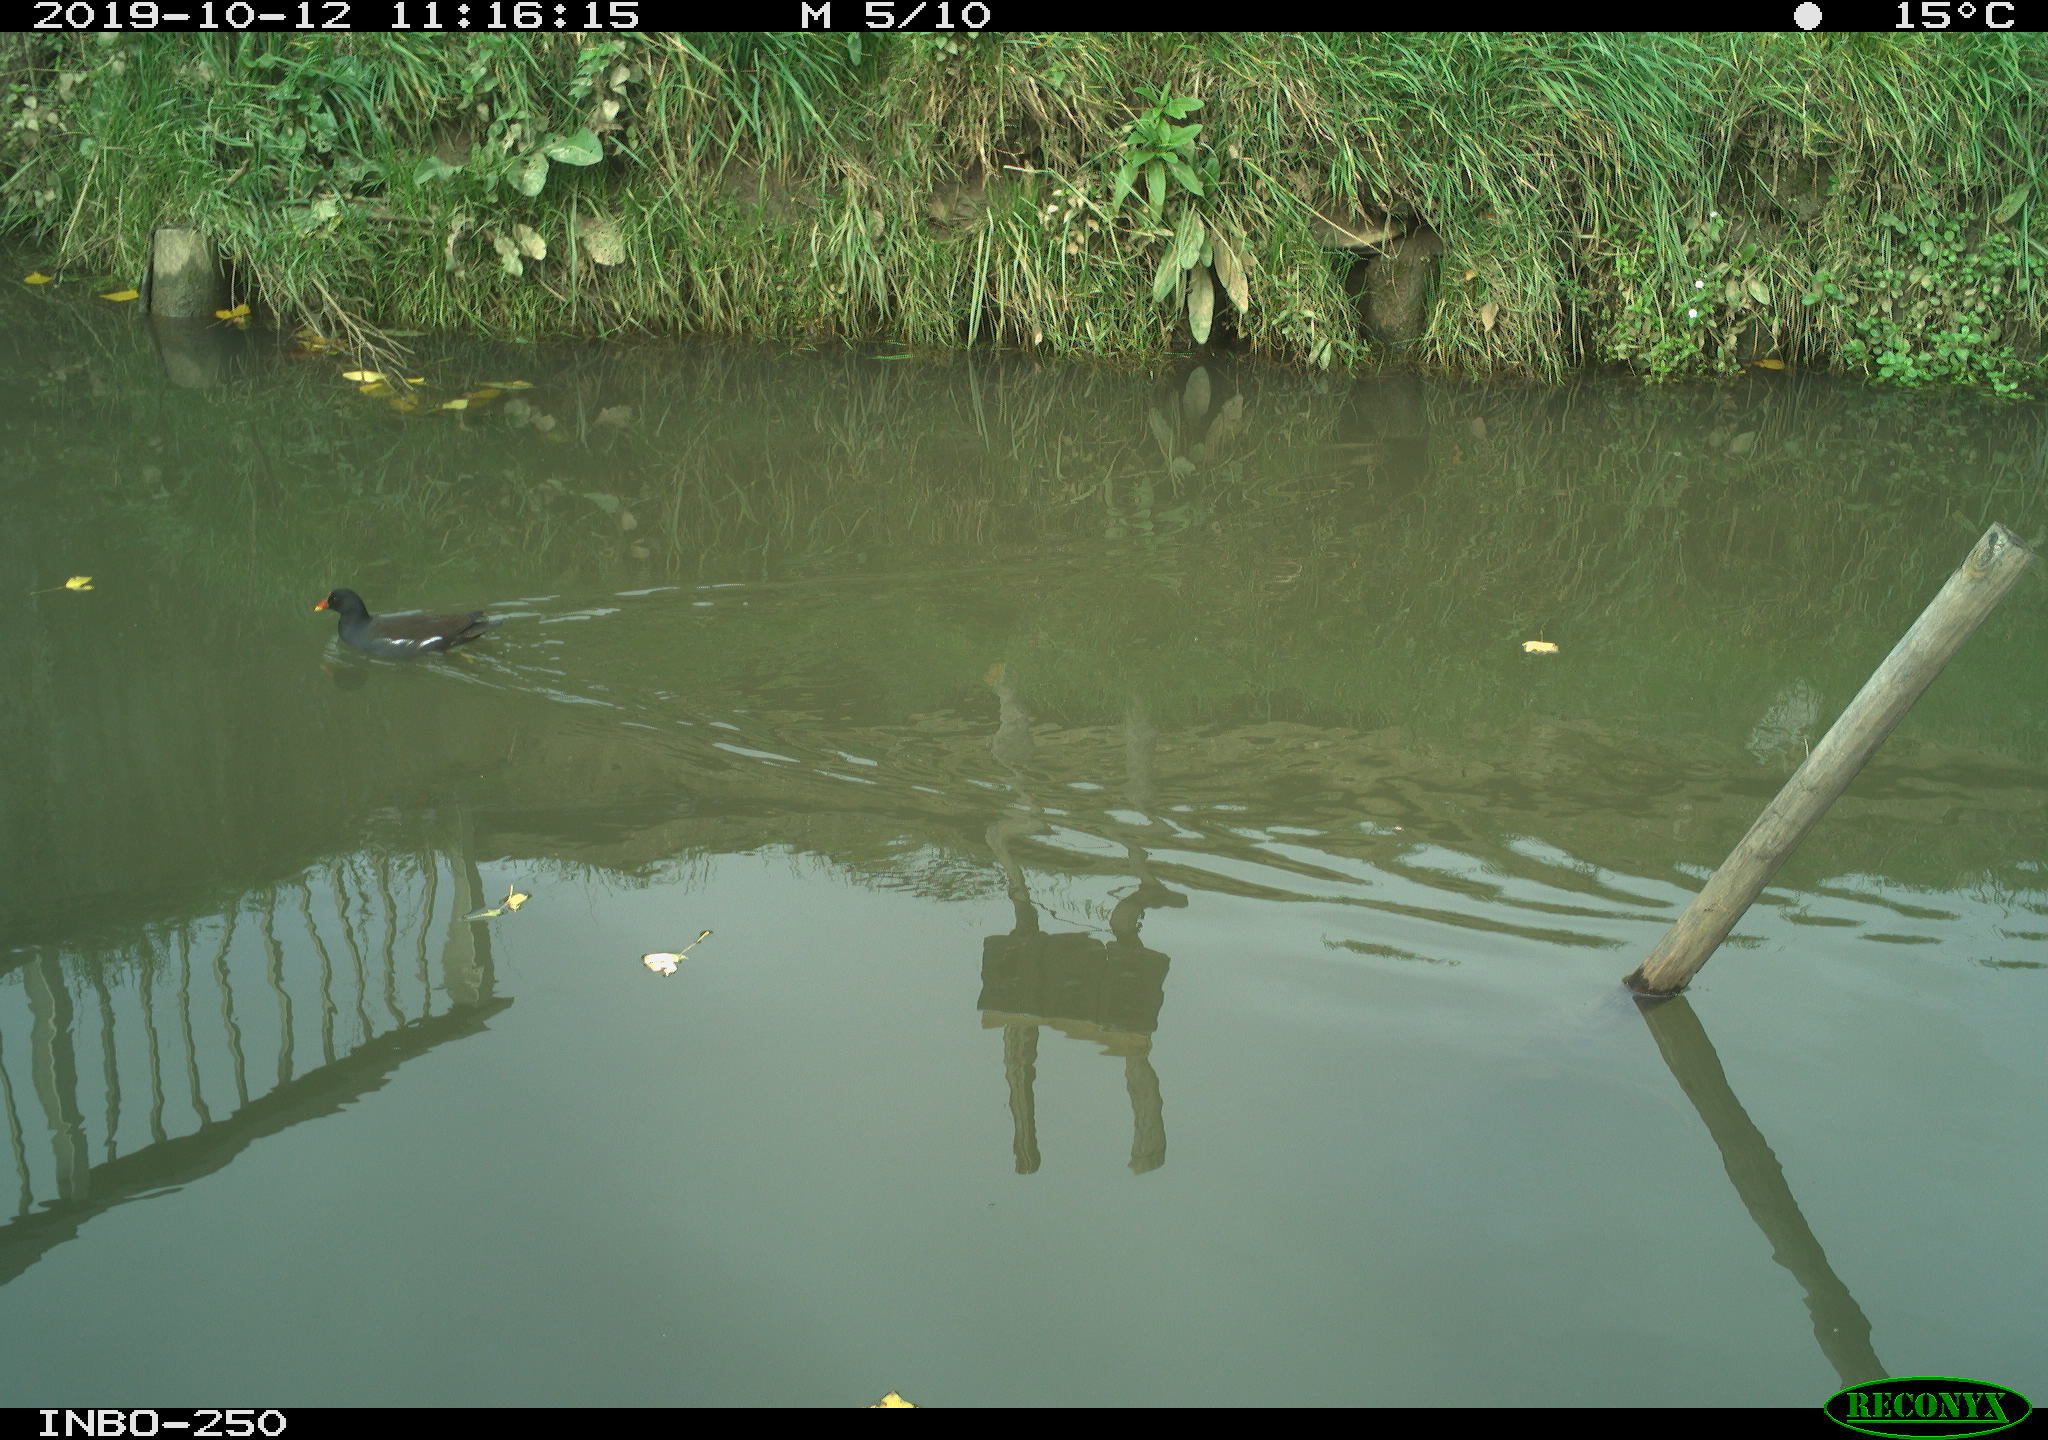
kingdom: Animalia
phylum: Chordata
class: Aves
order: Gruiformes
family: Rallidae
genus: Gallinula
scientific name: Gallinula chloropus
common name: Common moorhen
